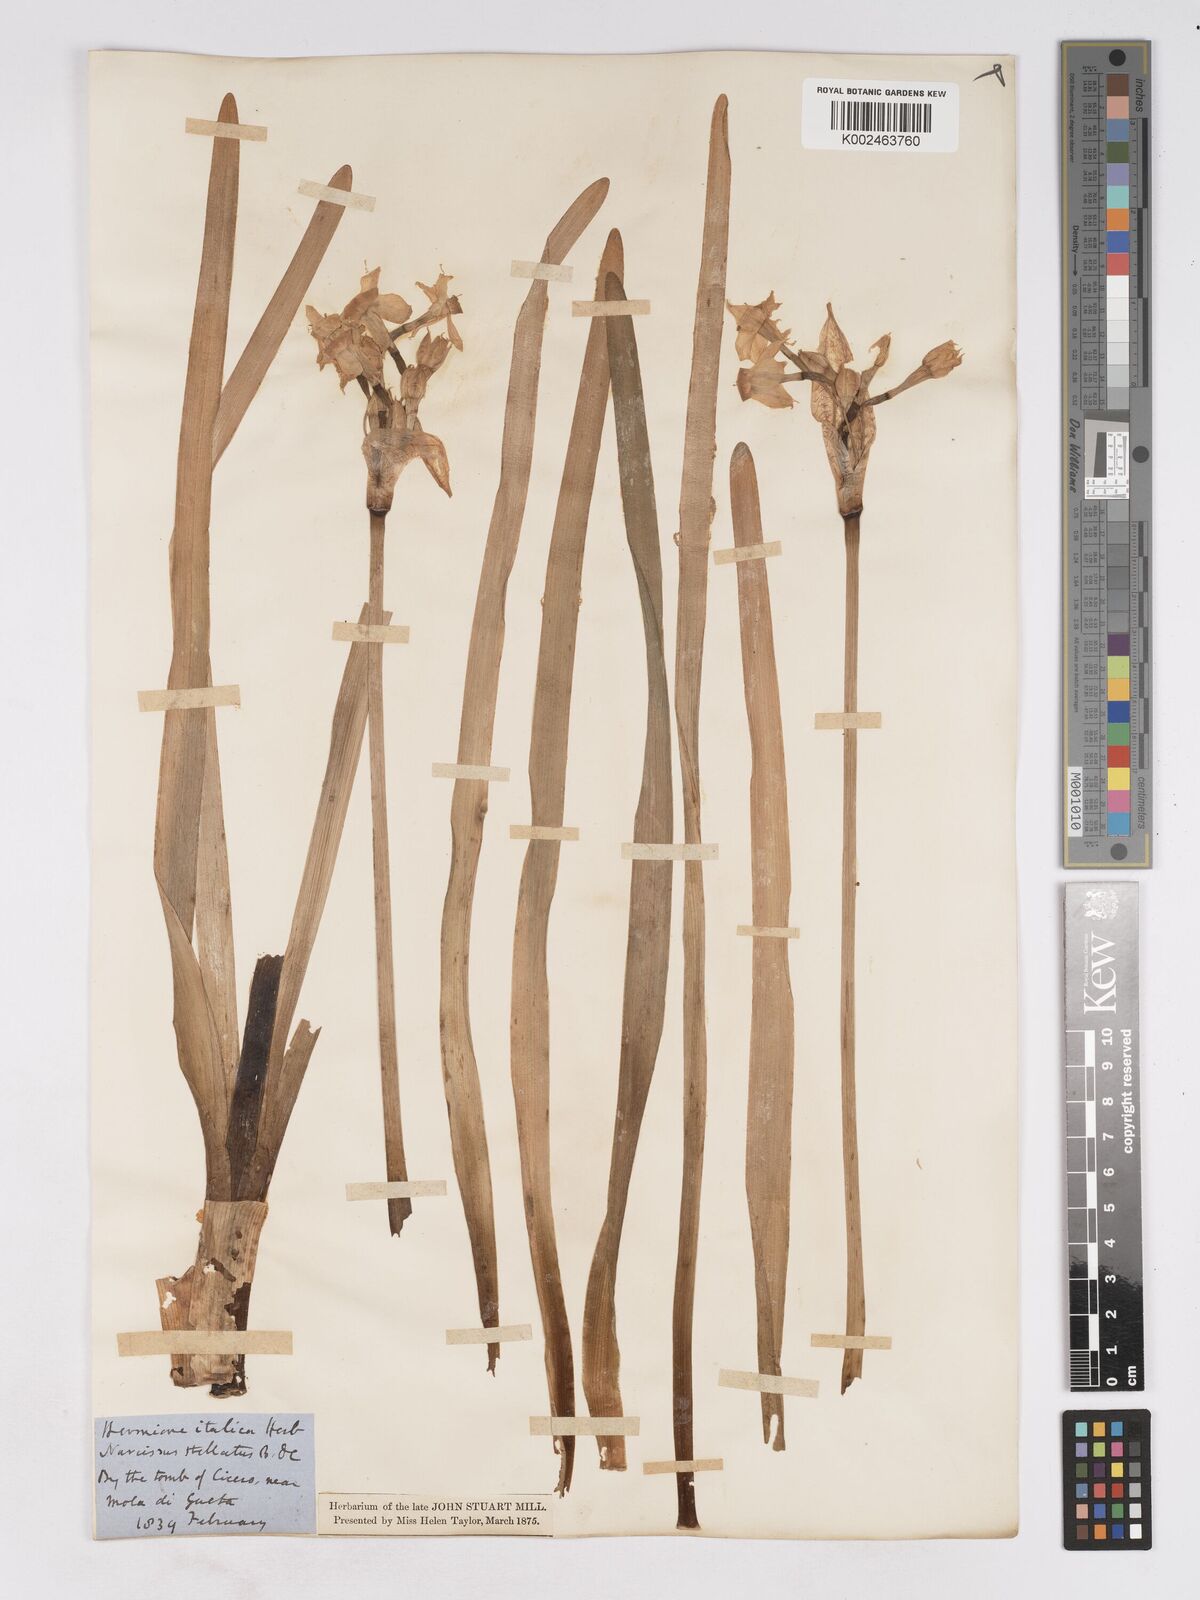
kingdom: Plantae
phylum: Tracheophyta
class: Liliopsida
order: Asparagales
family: Amaryllidaceae
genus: Narcissus
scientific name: Narcissus
